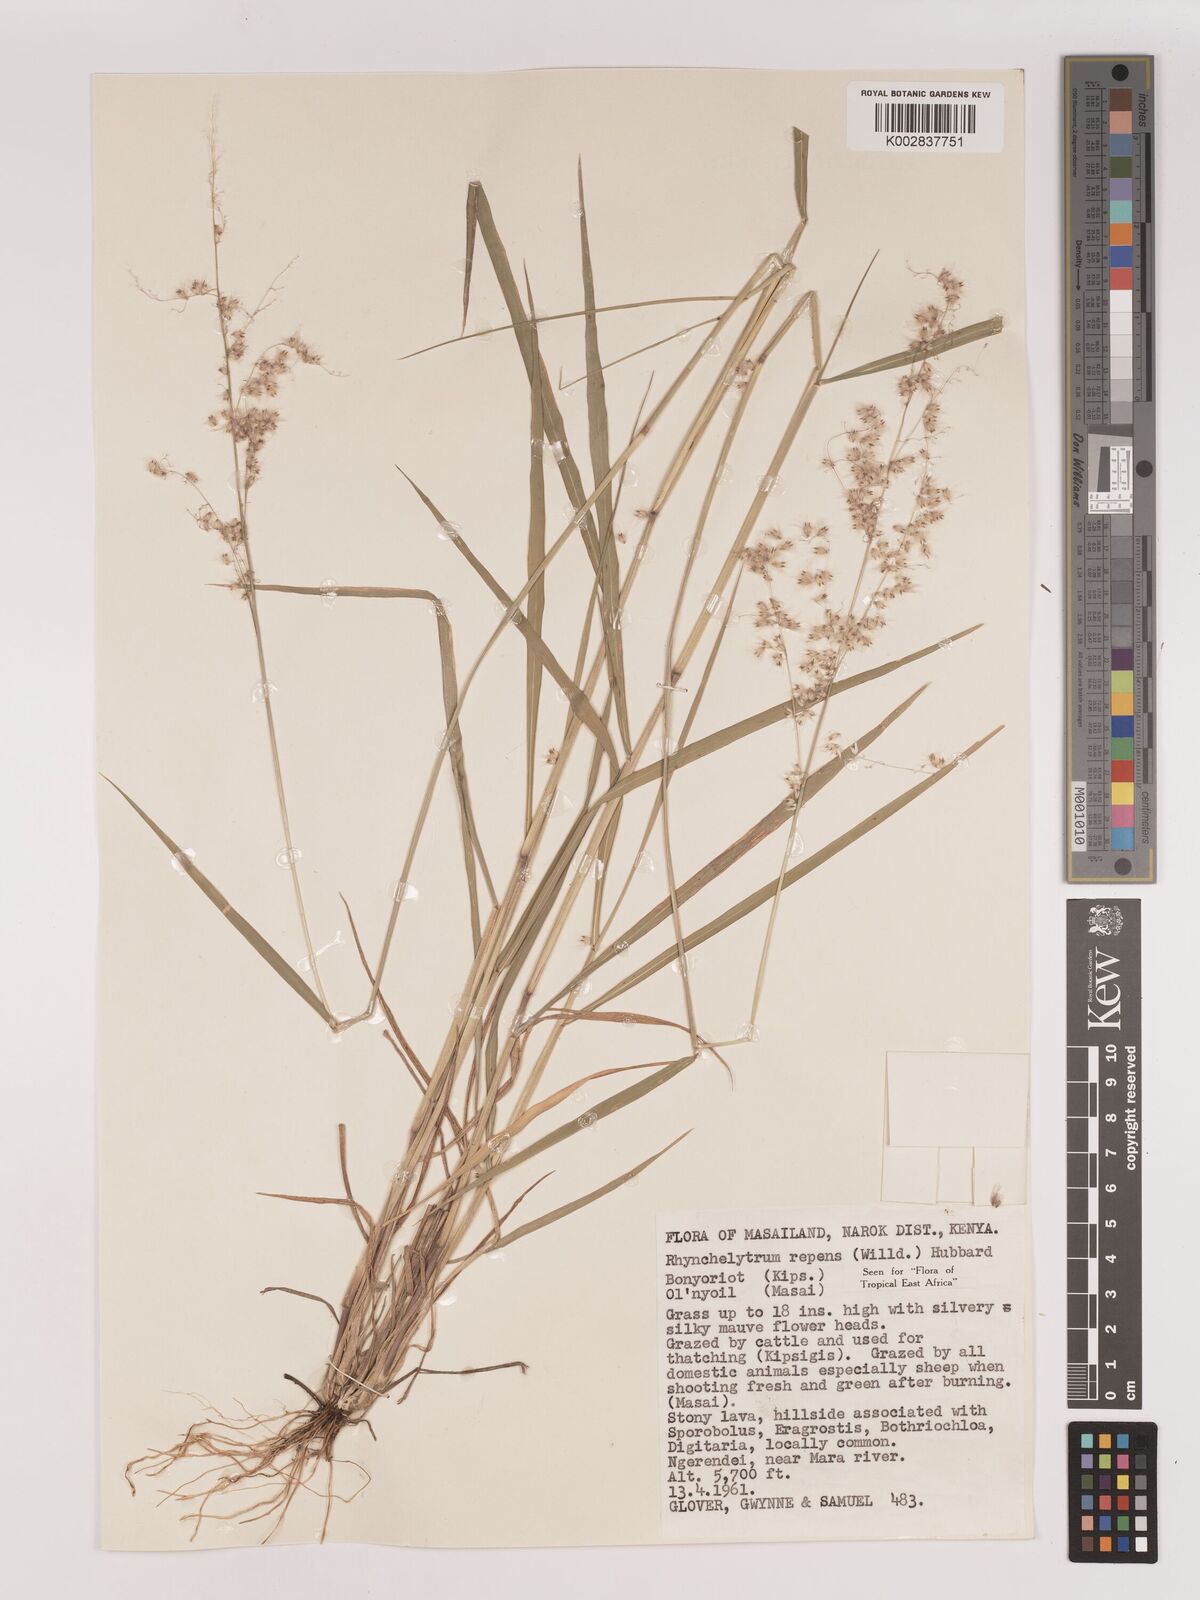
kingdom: Plantae
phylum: Tracheophyta
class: Liliopsida
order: Poales
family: Poaceae
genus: Melinis
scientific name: Melinis repens
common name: Rose natal grass
